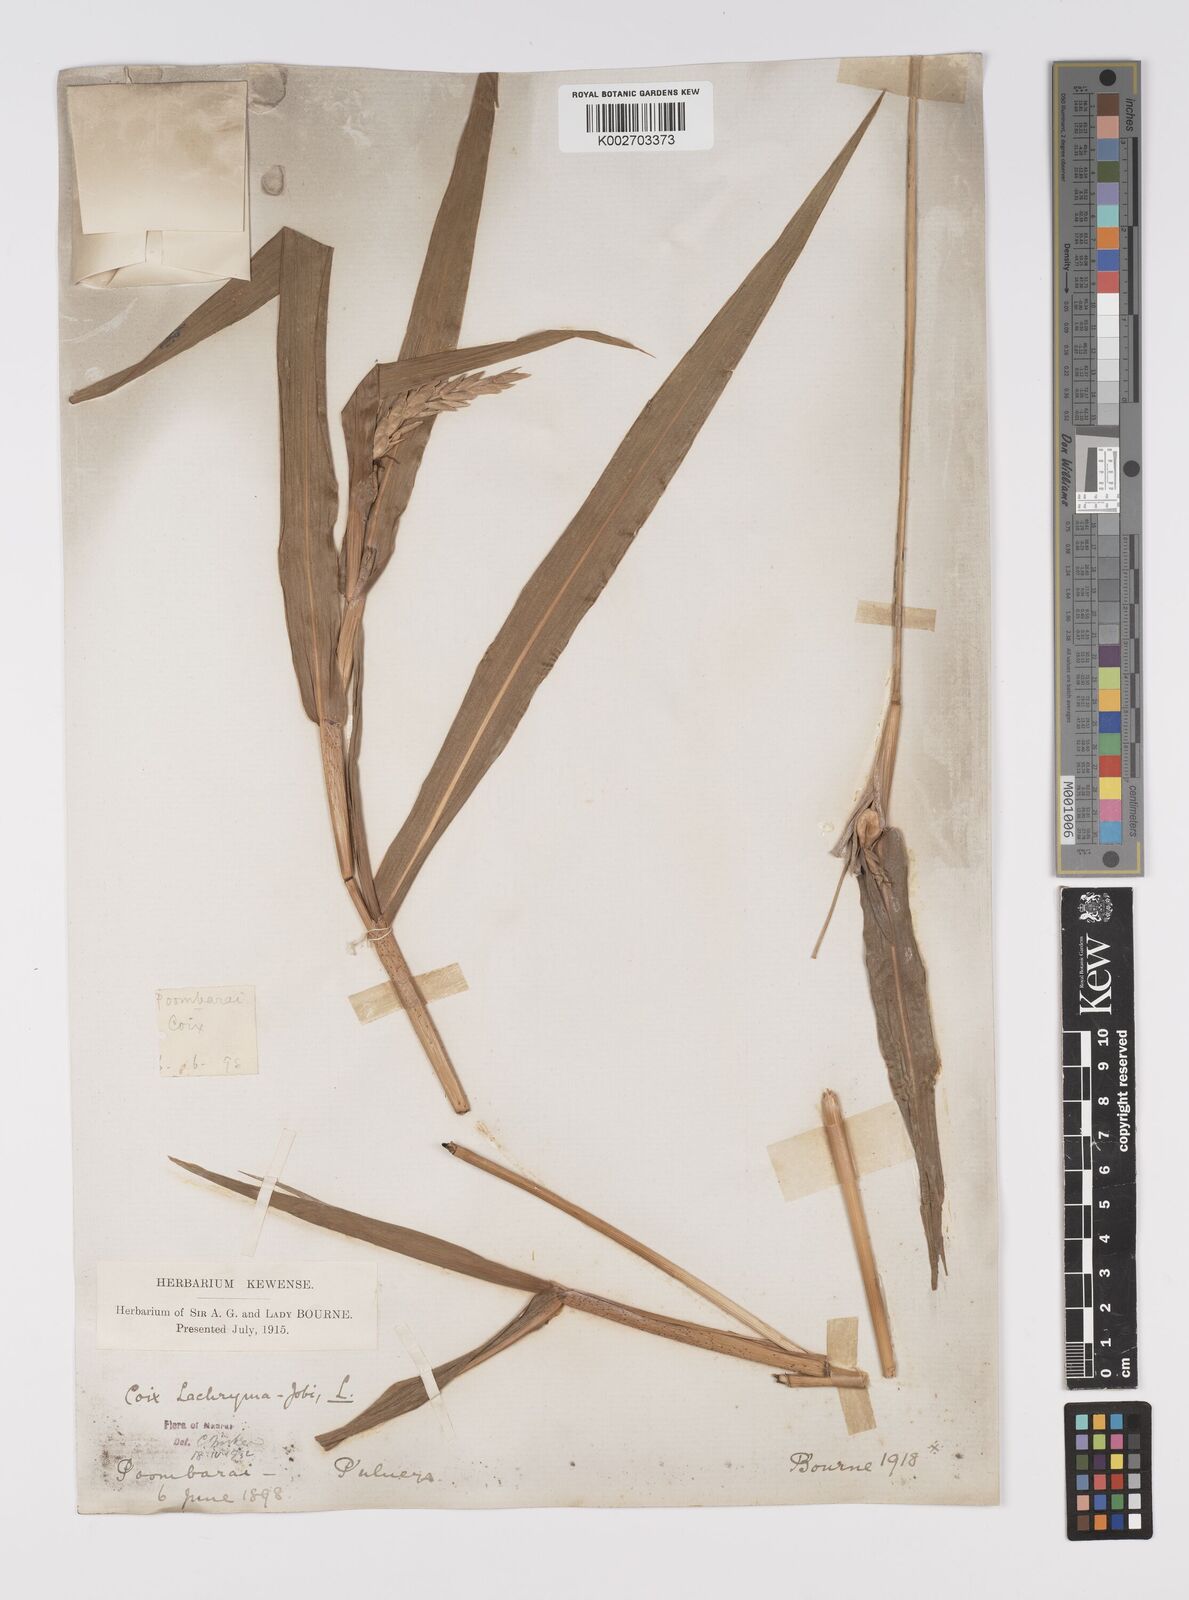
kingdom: Plantae
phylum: Tracheophyta
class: Liliopsida
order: Poales
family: Poaceae
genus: Coix
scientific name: Coix lacryma-jobi
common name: Job's tears
